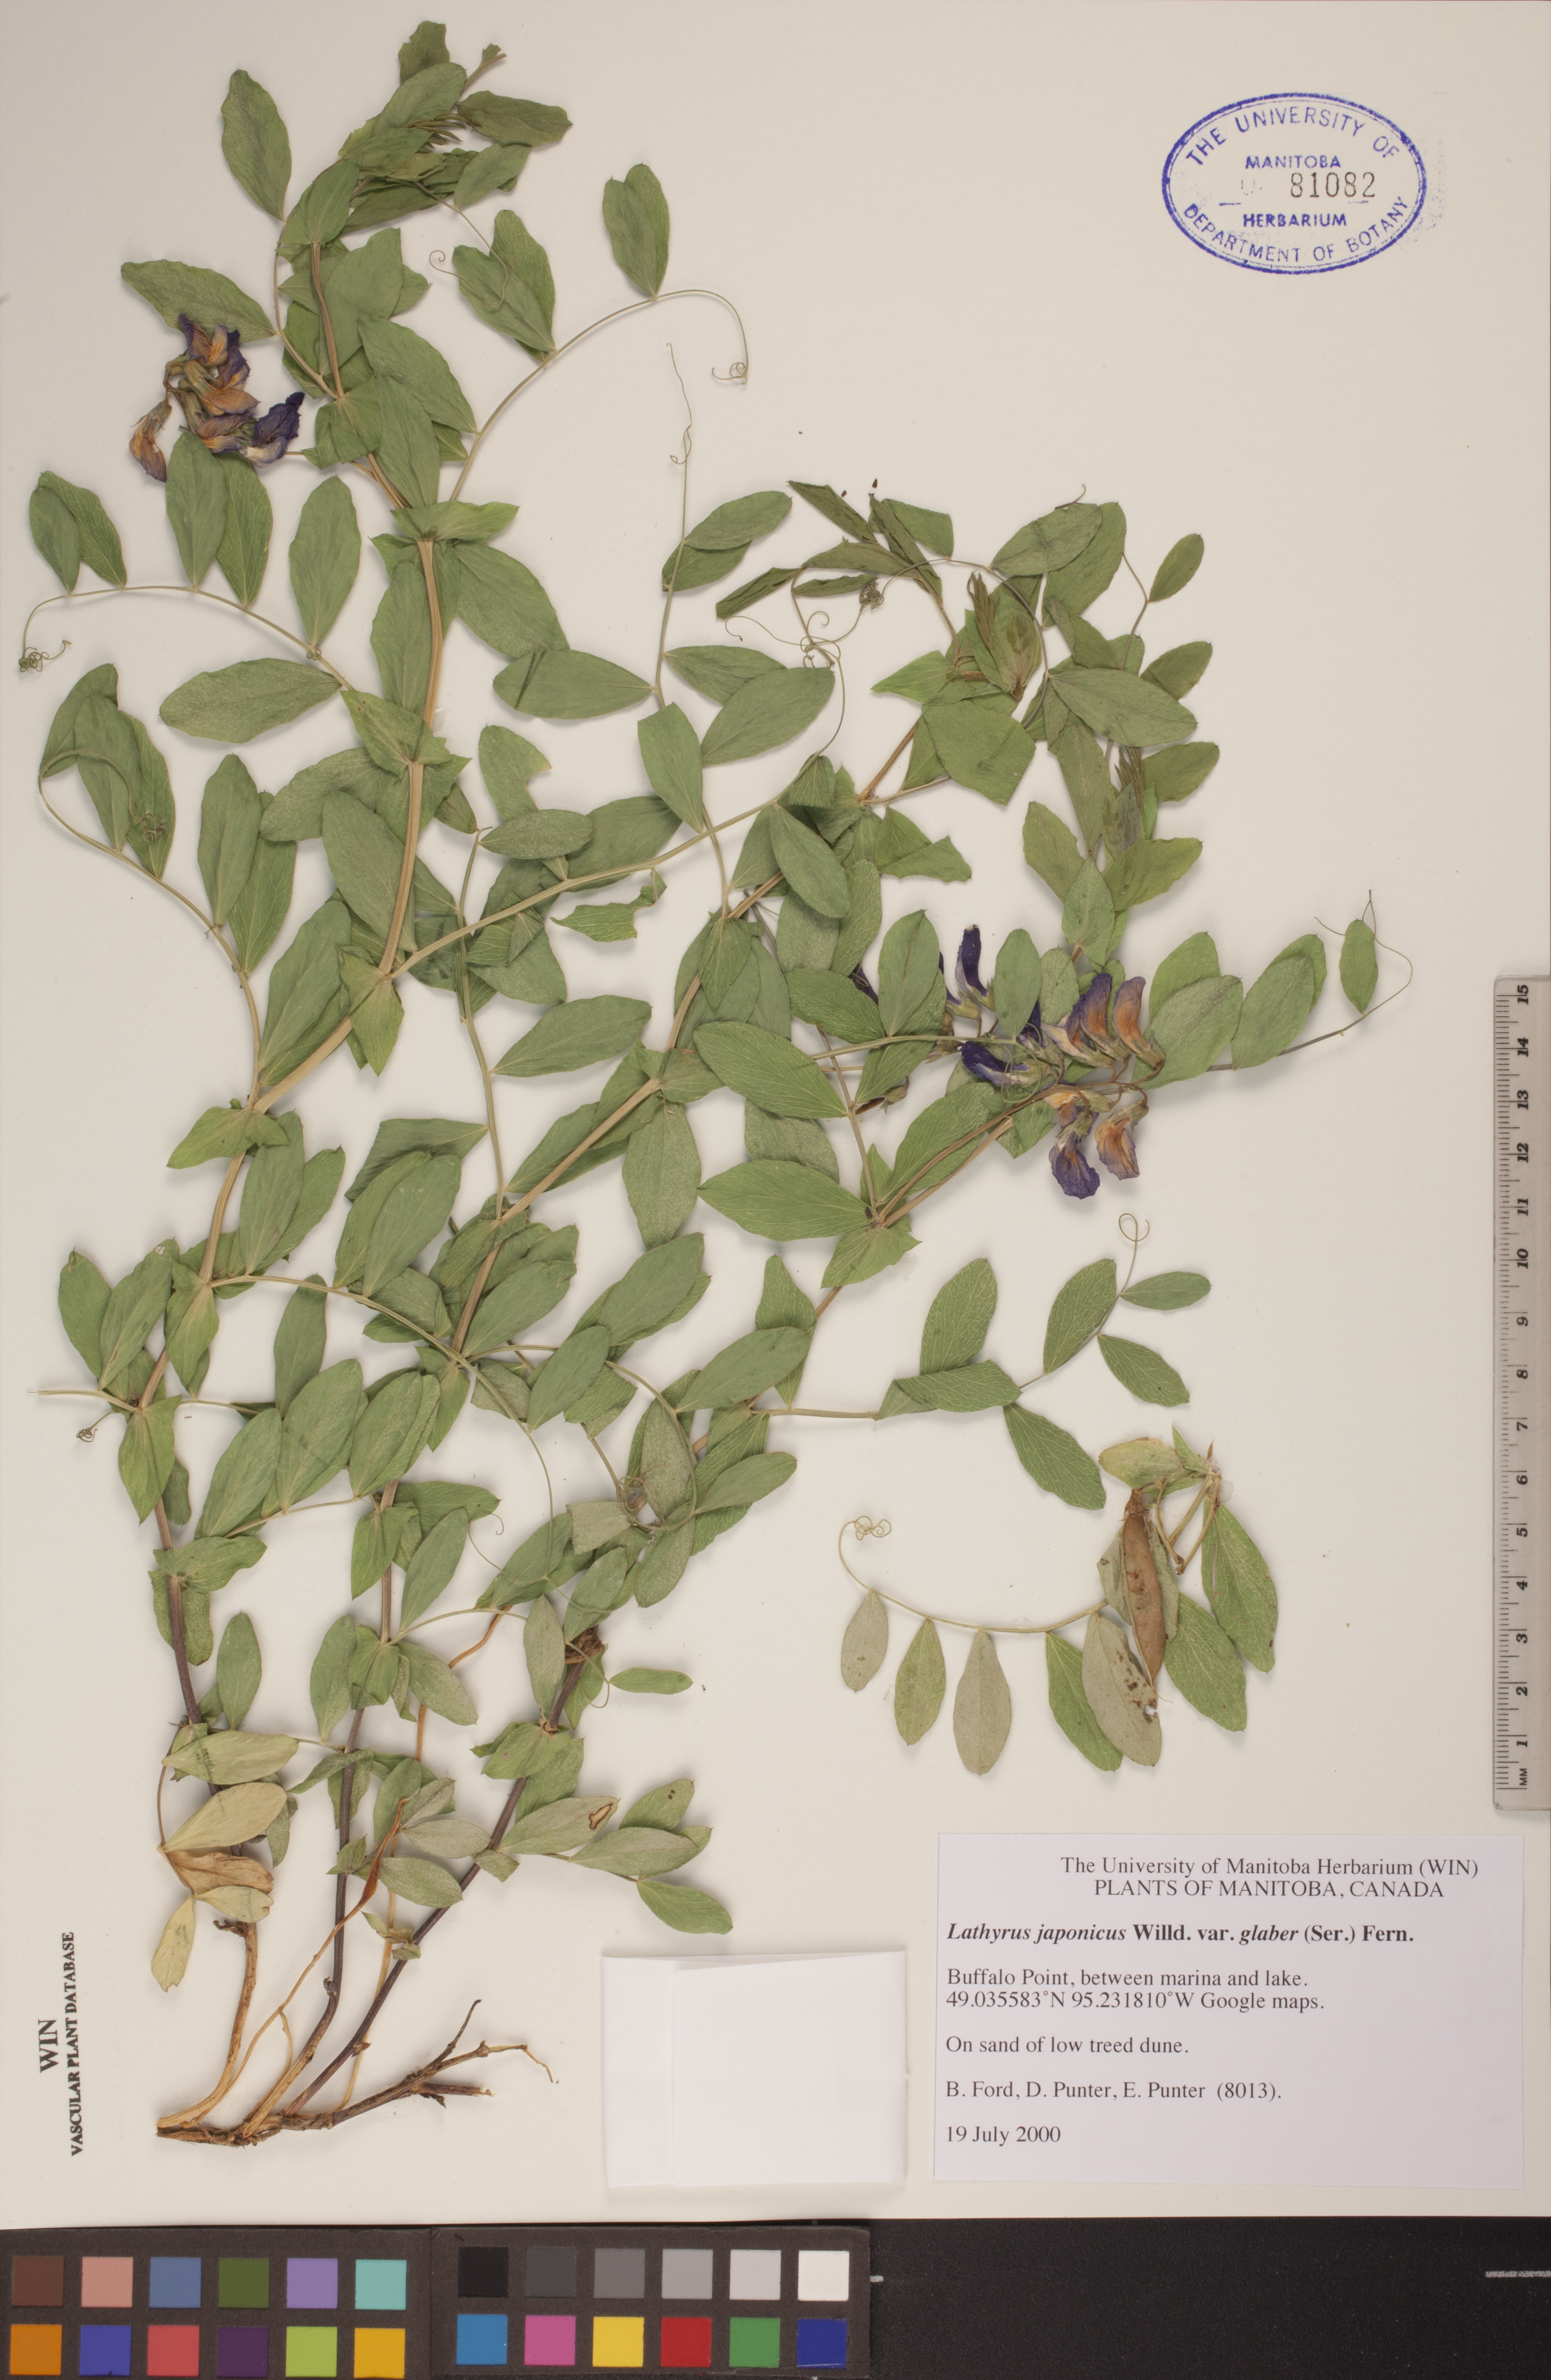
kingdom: Plantae
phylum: Tracheophyta
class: Magnoliopsida
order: Fabales
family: Fabaceae
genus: Lathyrus
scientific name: Lathyrus japonicus
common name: Sea pea
